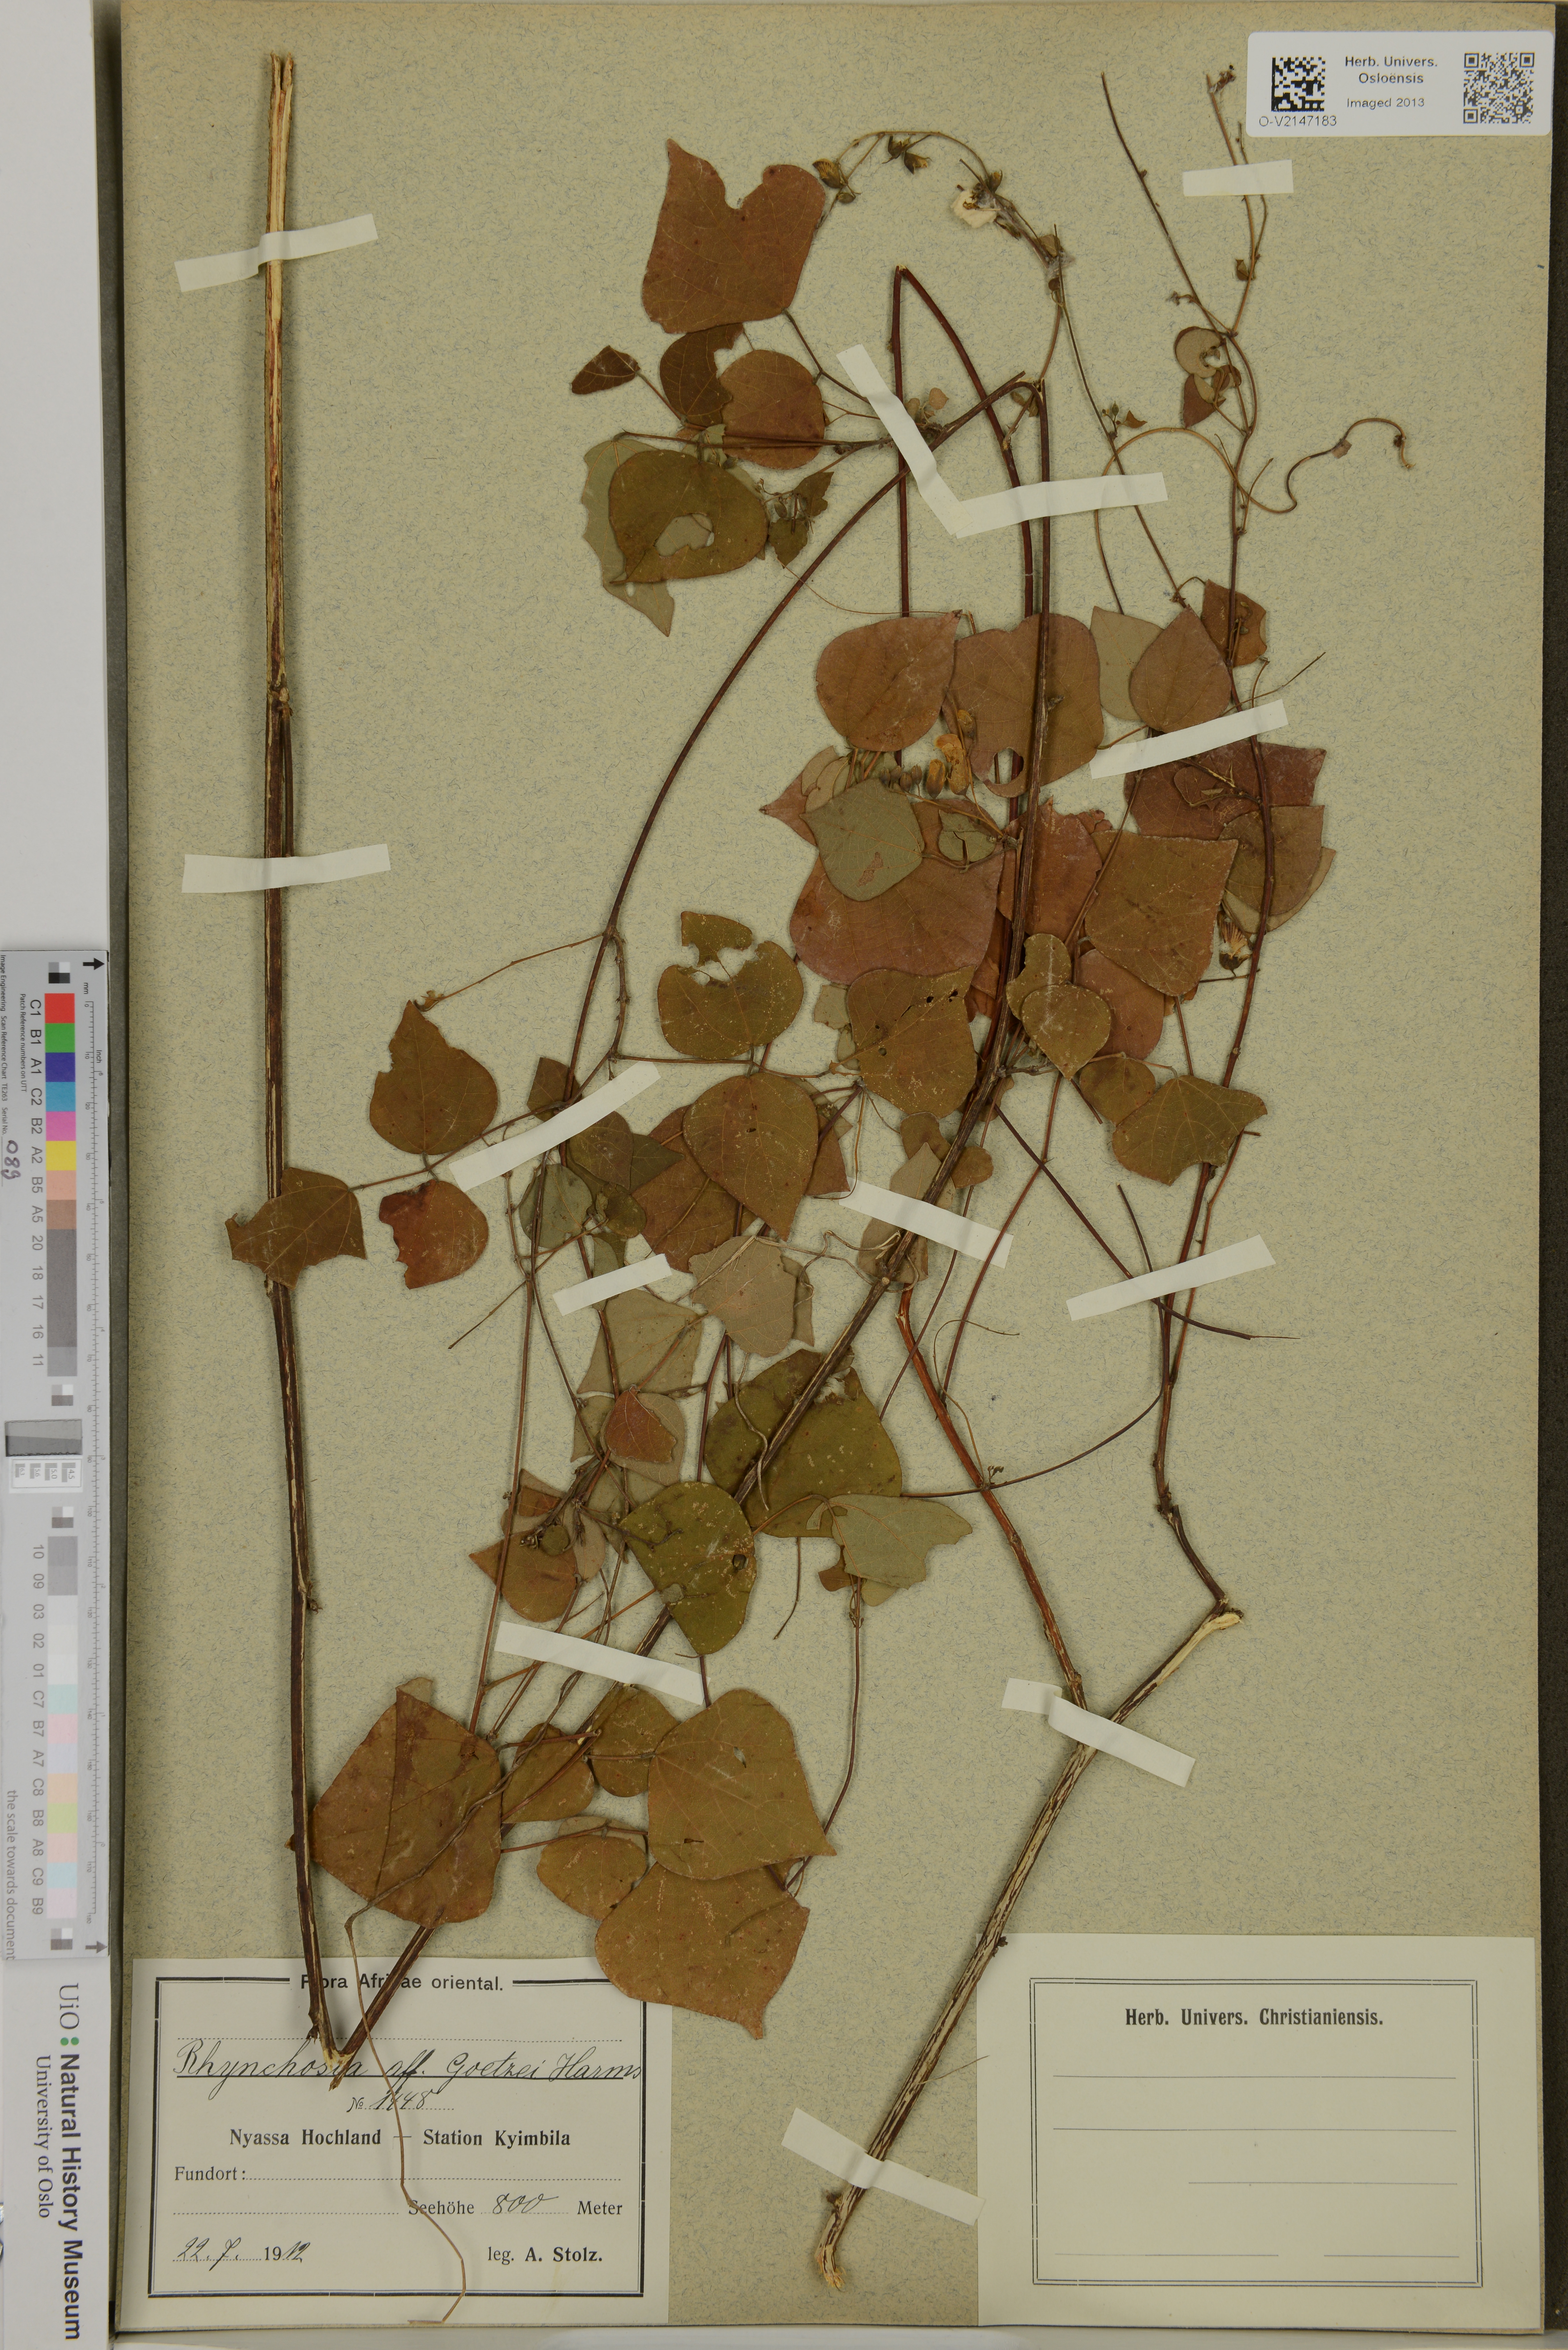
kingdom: Plantae
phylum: Tracheophyta
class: Magnoliopsida
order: Fabales
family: Fabaceae
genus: Rhynchosia
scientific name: Rhynchosia goetzei
